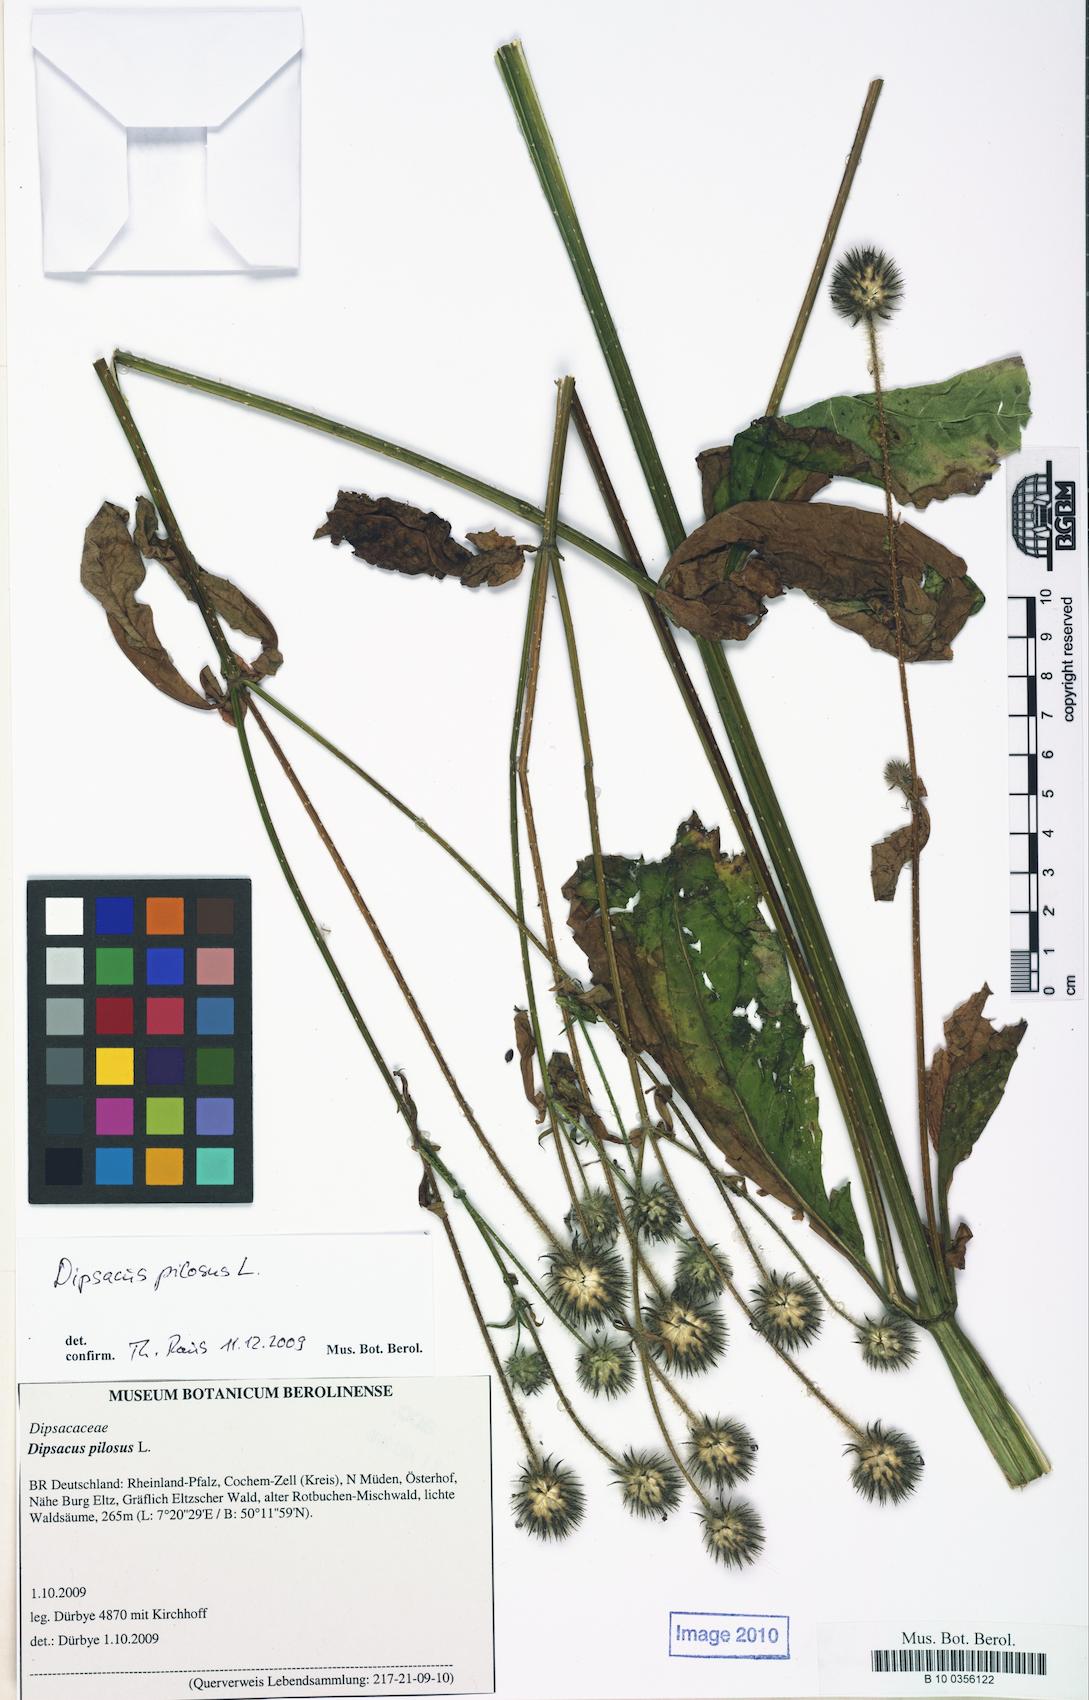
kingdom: Plantae
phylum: Tracheophyta
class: Magnoliopsida
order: Dipsacales
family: Caprifoliaceae
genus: Dipsacus
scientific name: Dipsacus pilosus
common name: Small teasel
